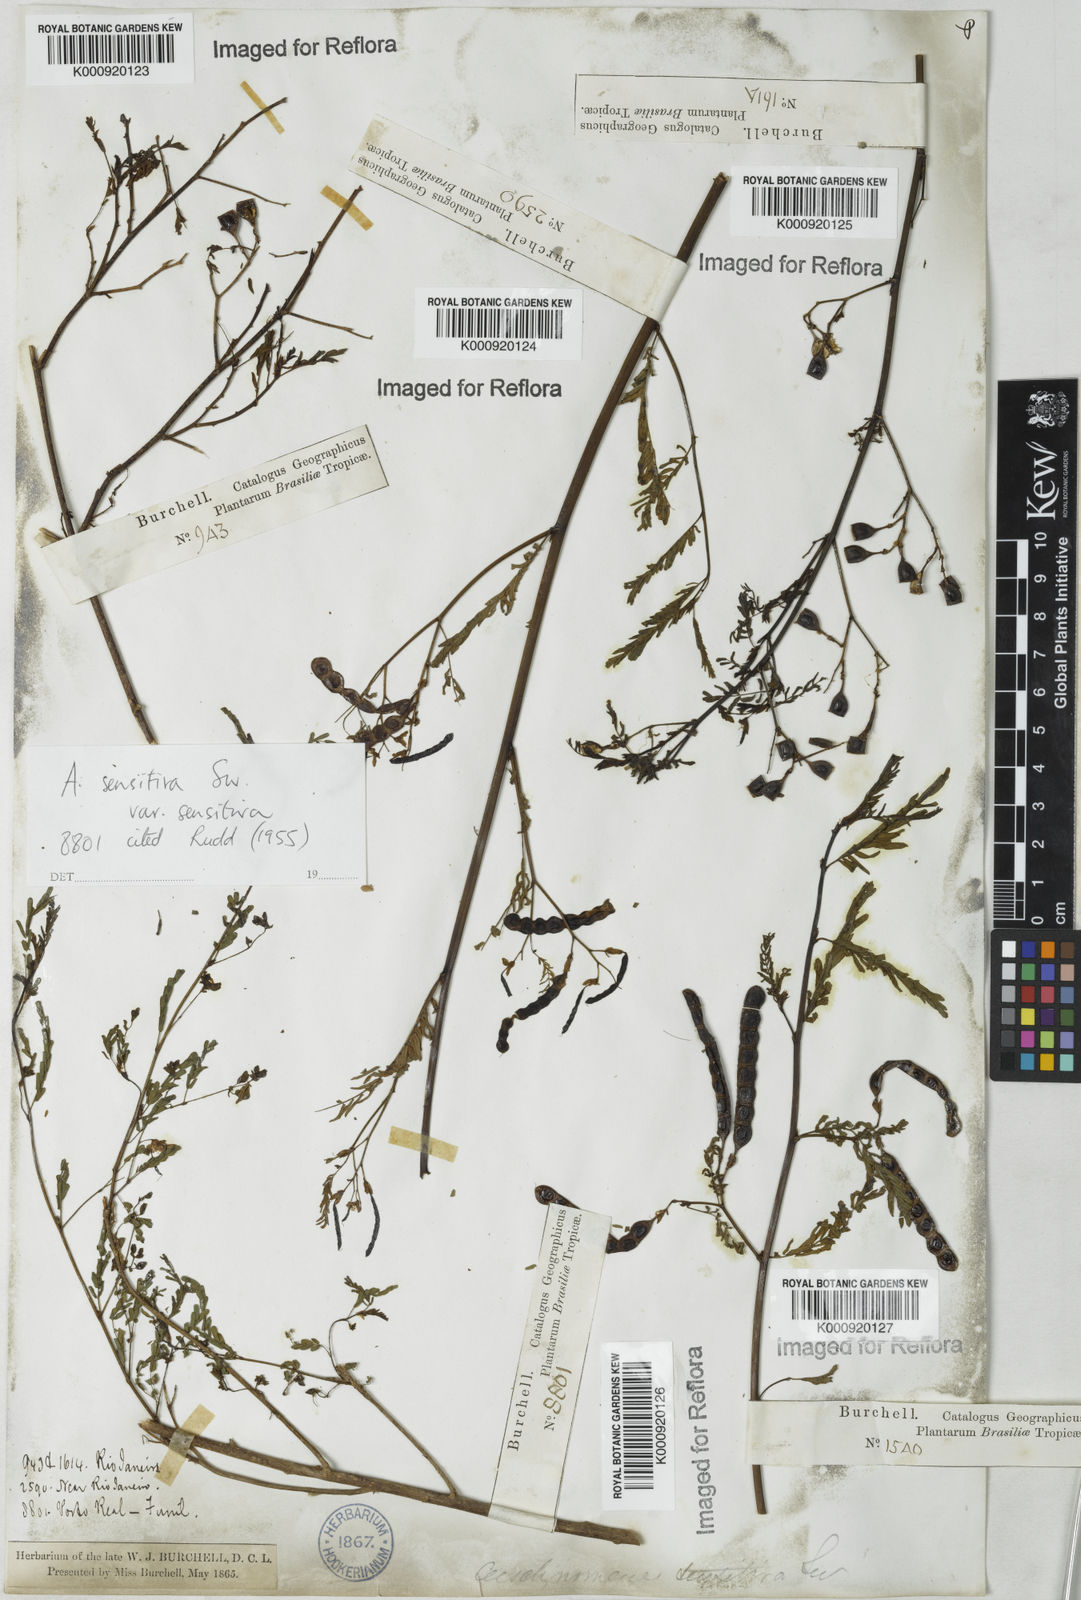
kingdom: Plantae
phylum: Tracheophyta
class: Magnoliopsida
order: Fabales
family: Fabaceae
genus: Aeschynomene
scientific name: Aeschynomene sensitiva
